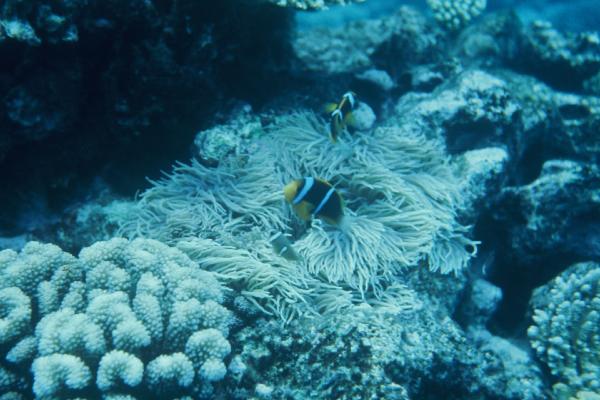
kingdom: Animalia
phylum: Chordata
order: Perciformes
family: Pomacentridae
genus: Amphiprion
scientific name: Amphiprion chrysopterus
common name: Orange-fin anemonefish
